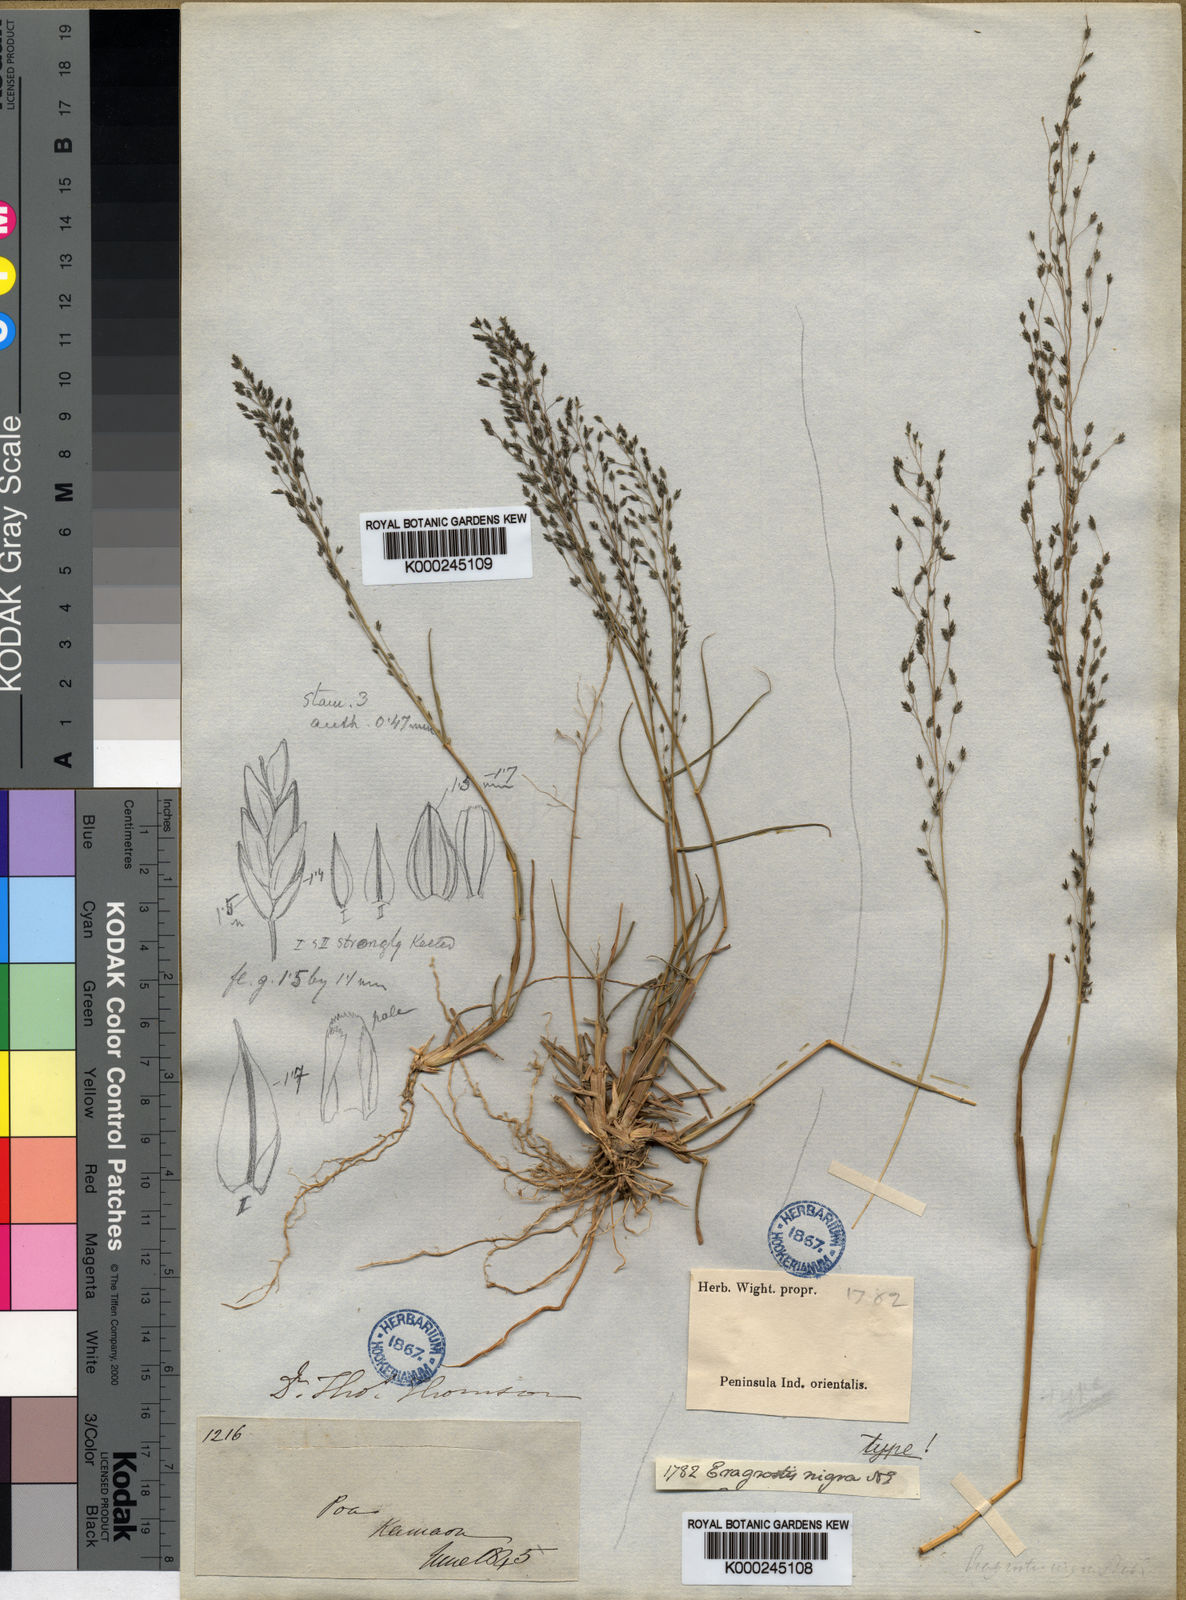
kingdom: Plantae
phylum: Tracheophyta
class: Liliopsida
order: Poales
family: Poaceae
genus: Eragrostis
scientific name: Eragrostis nigra
